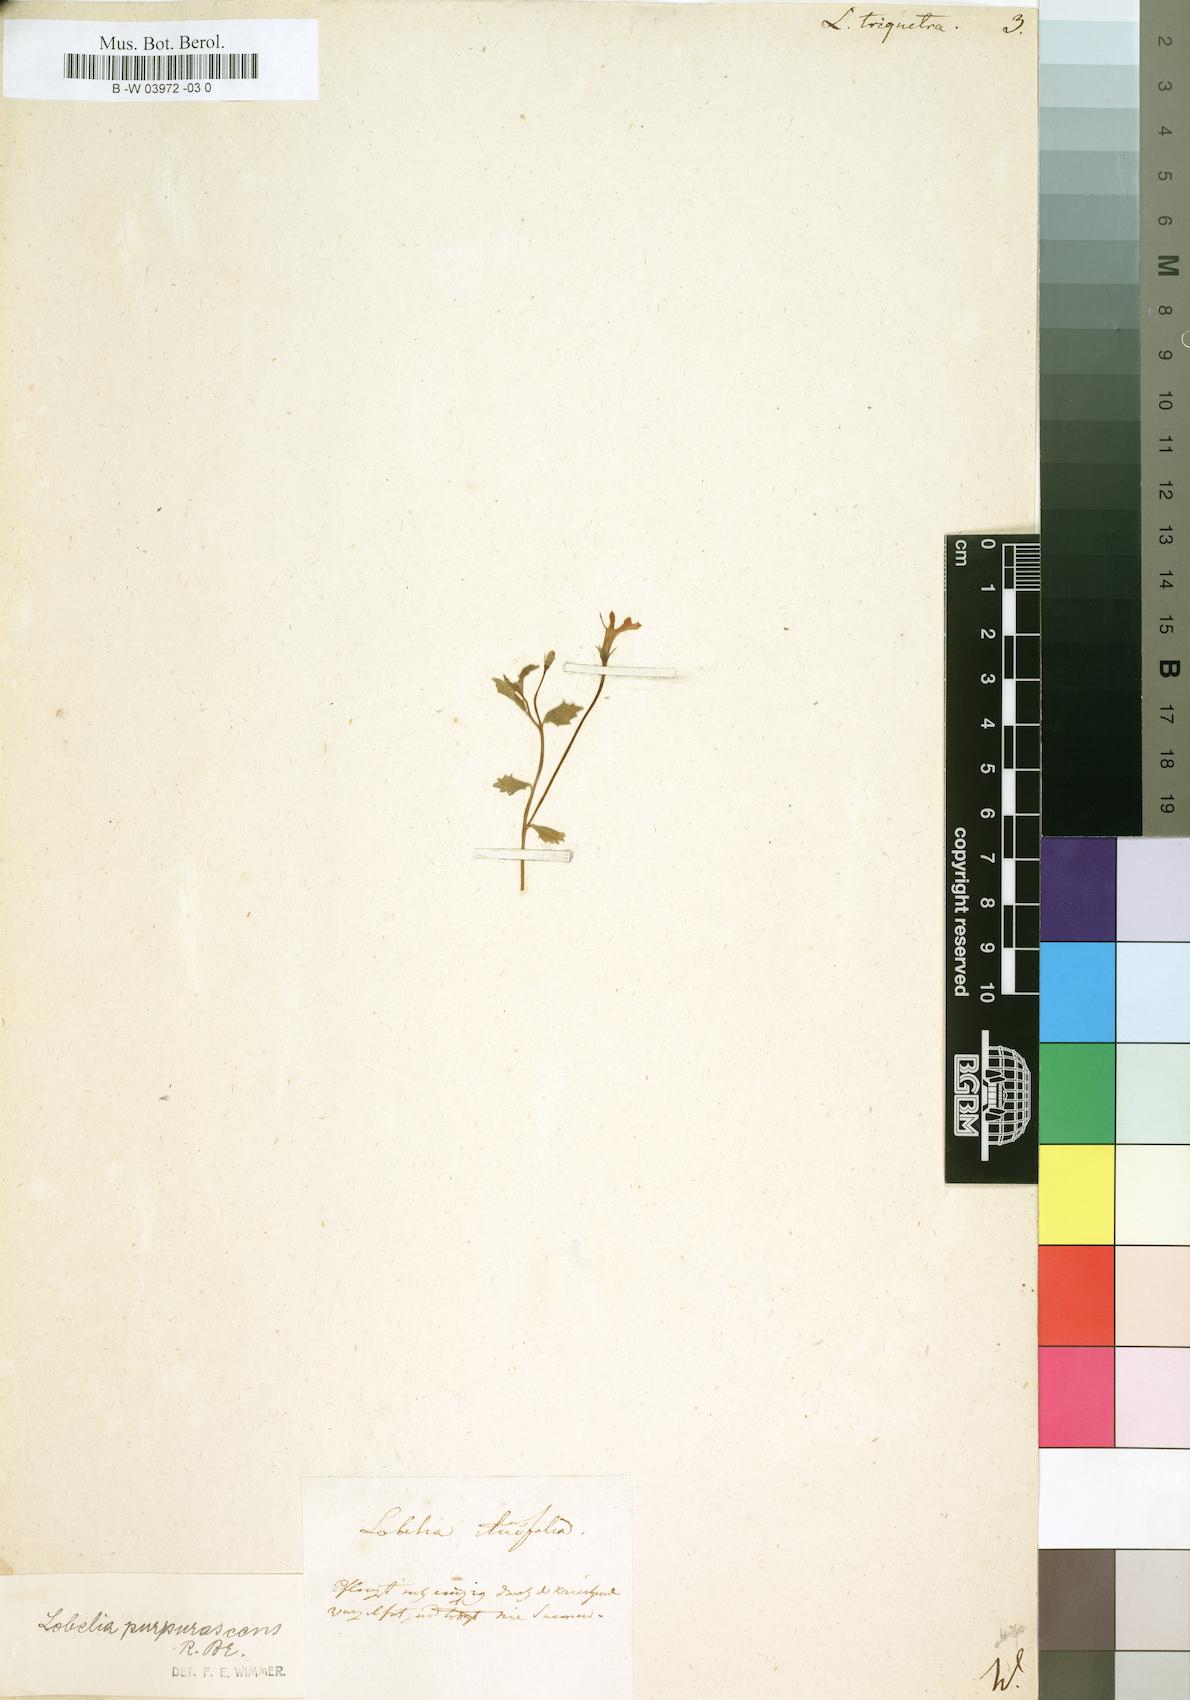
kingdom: Plantae
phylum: Tracheophyta
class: Magnoliopsida
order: Asterales
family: Campanulaceae
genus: Lobelia
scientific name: Lobelia triquetra
